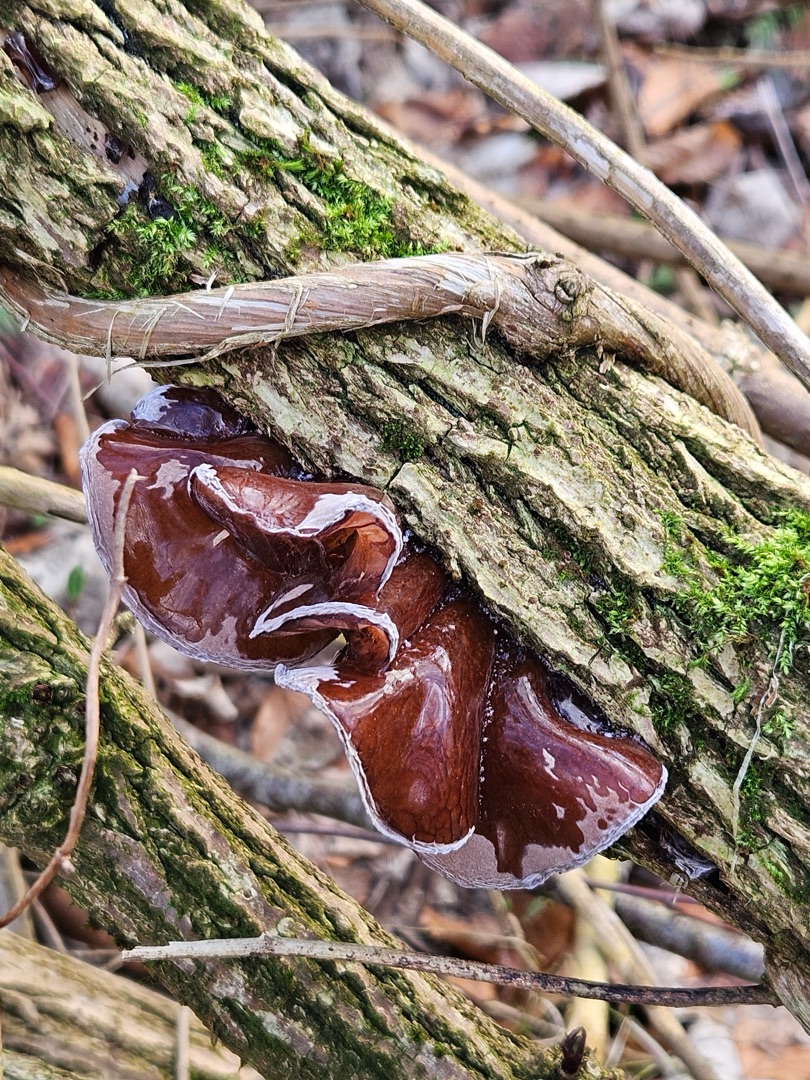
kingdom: Fungi
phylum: Basidiomycota
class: Agaricomycetes
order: Auriculariales
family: Auriculariaceae
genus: Auricularia
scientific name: Auricularia auricula-judae
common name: Almindelig judasøre
